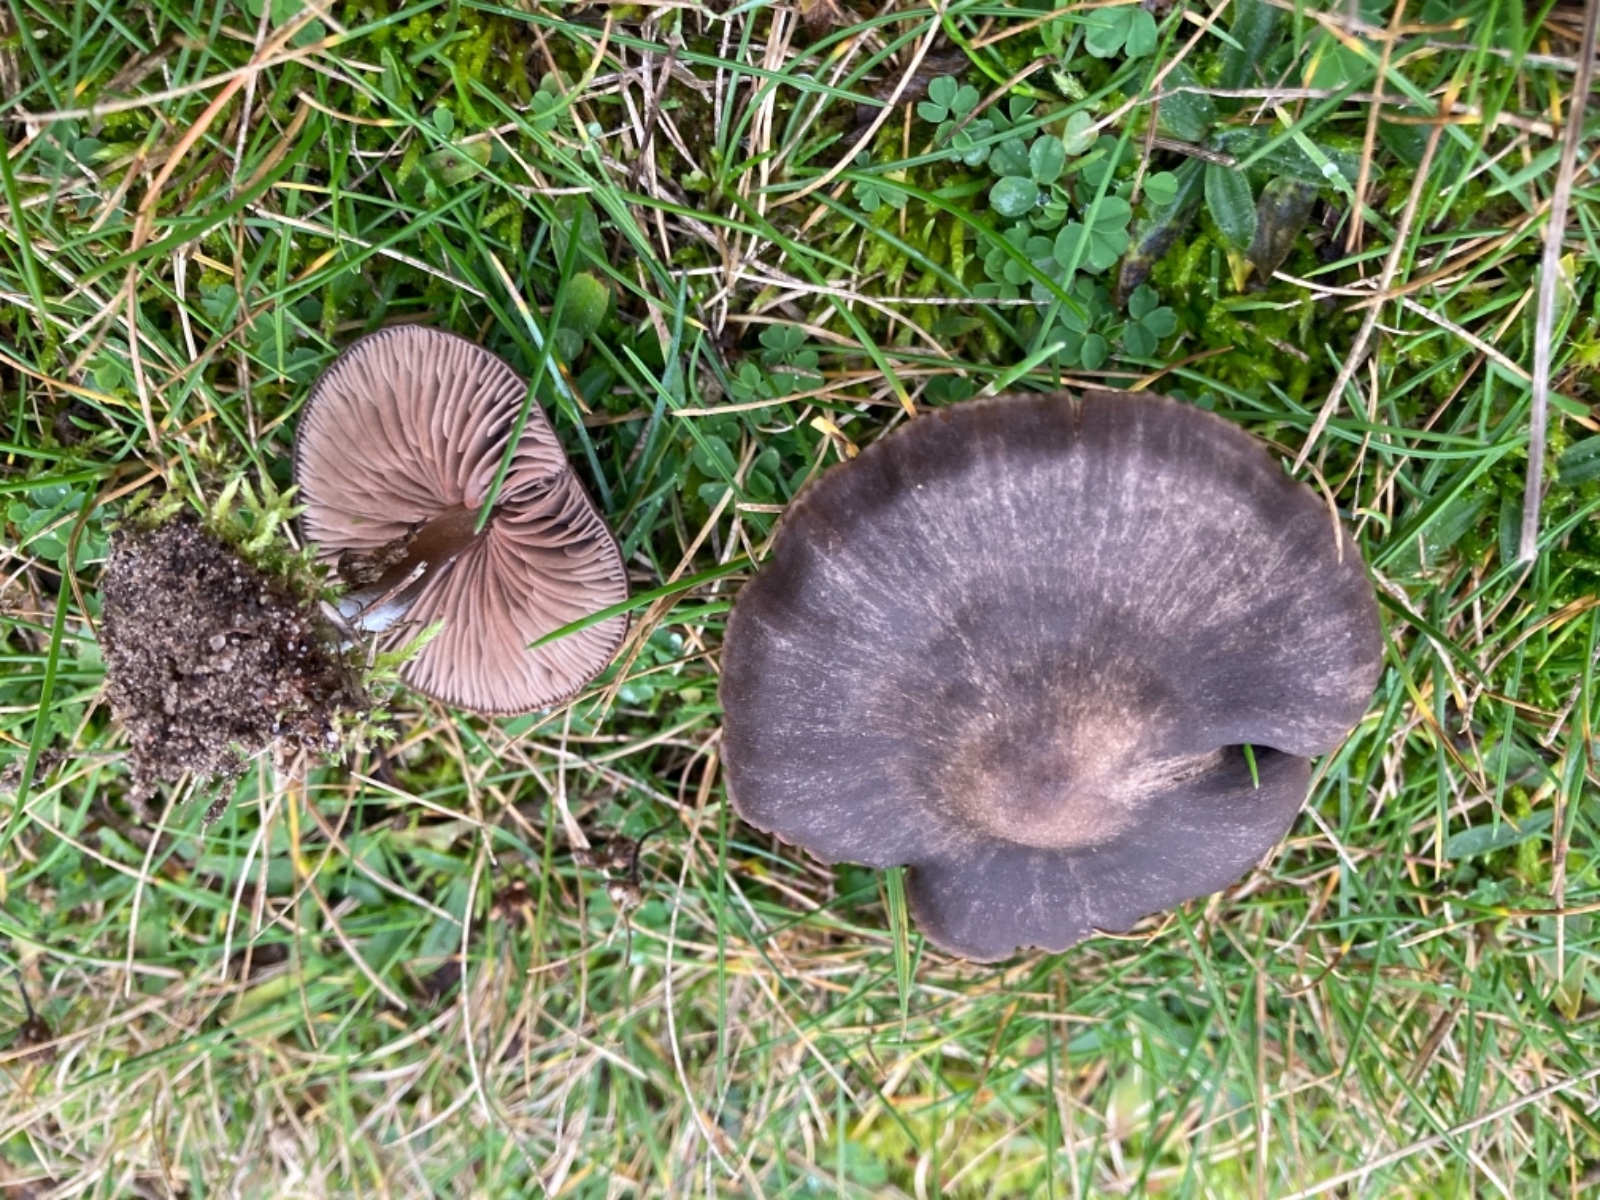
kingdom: Fungi
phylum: Basidiomycota
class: Agaricomycetes
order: Agaricales
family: Entolomataceae
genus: Entoloma
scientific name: Entoloma
